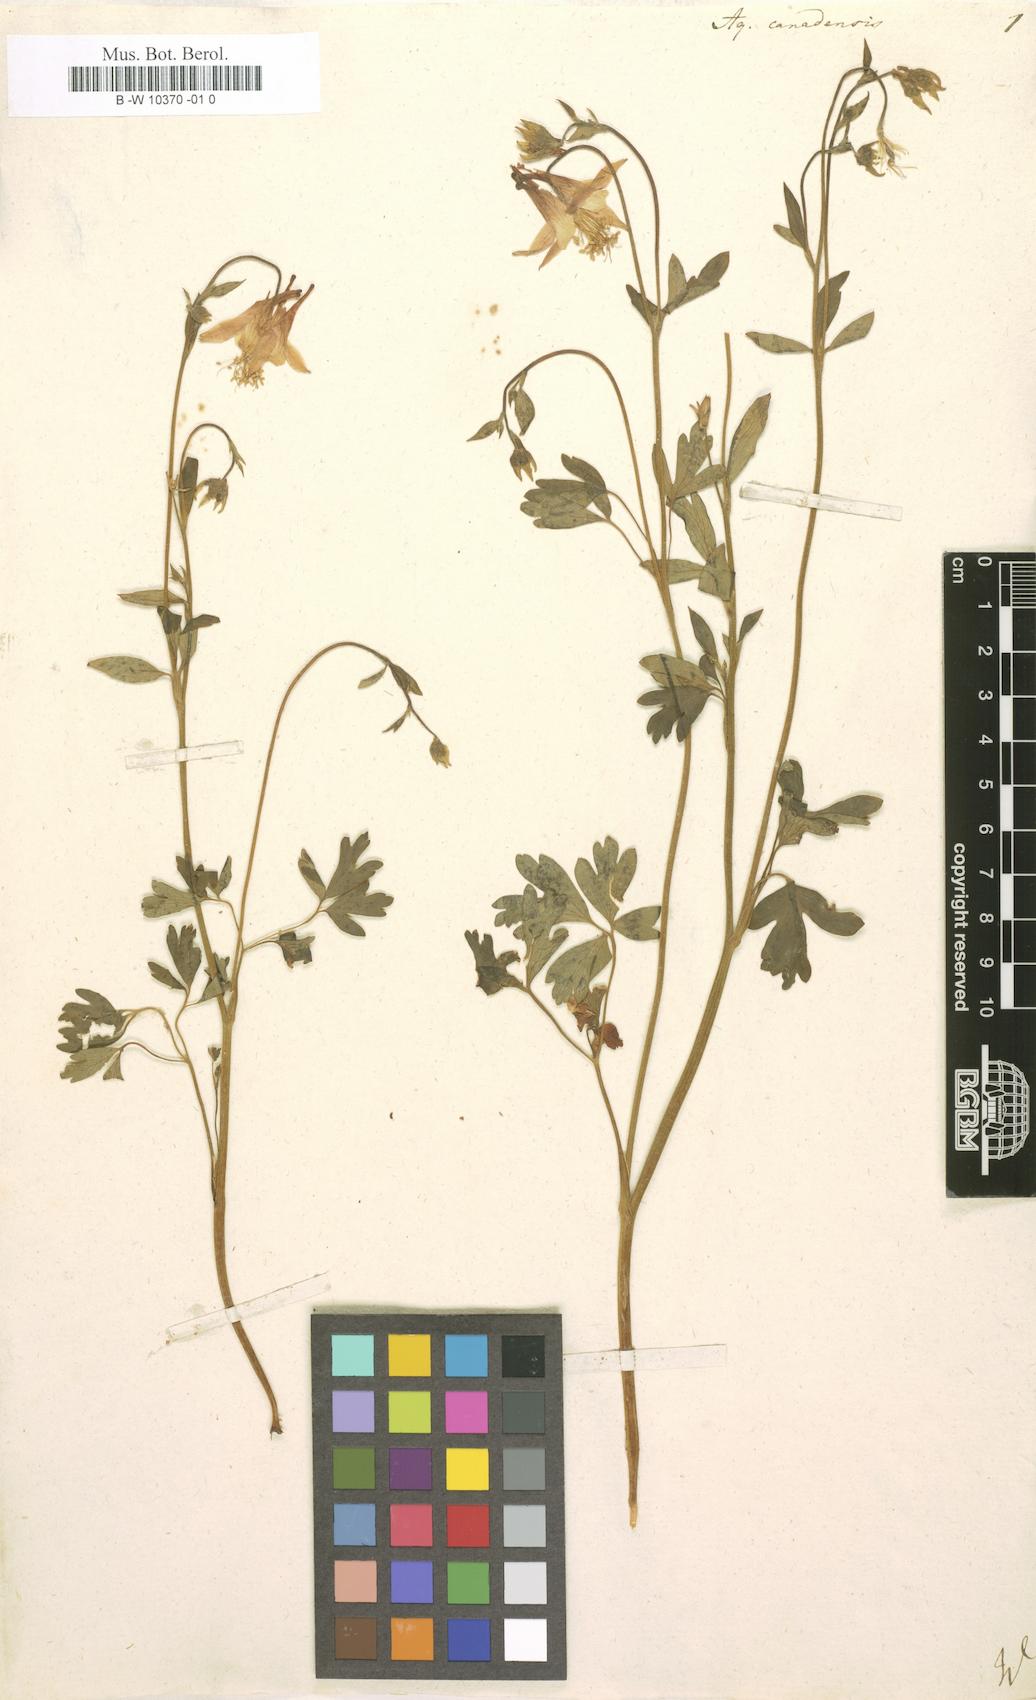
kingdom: Plantae
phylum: Tracheophyta
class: Magnoliopsida
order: Ranunculales
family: Ranunculaceae
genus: Aquilegia
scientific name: Aquilegia canadensis
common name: American columbine
